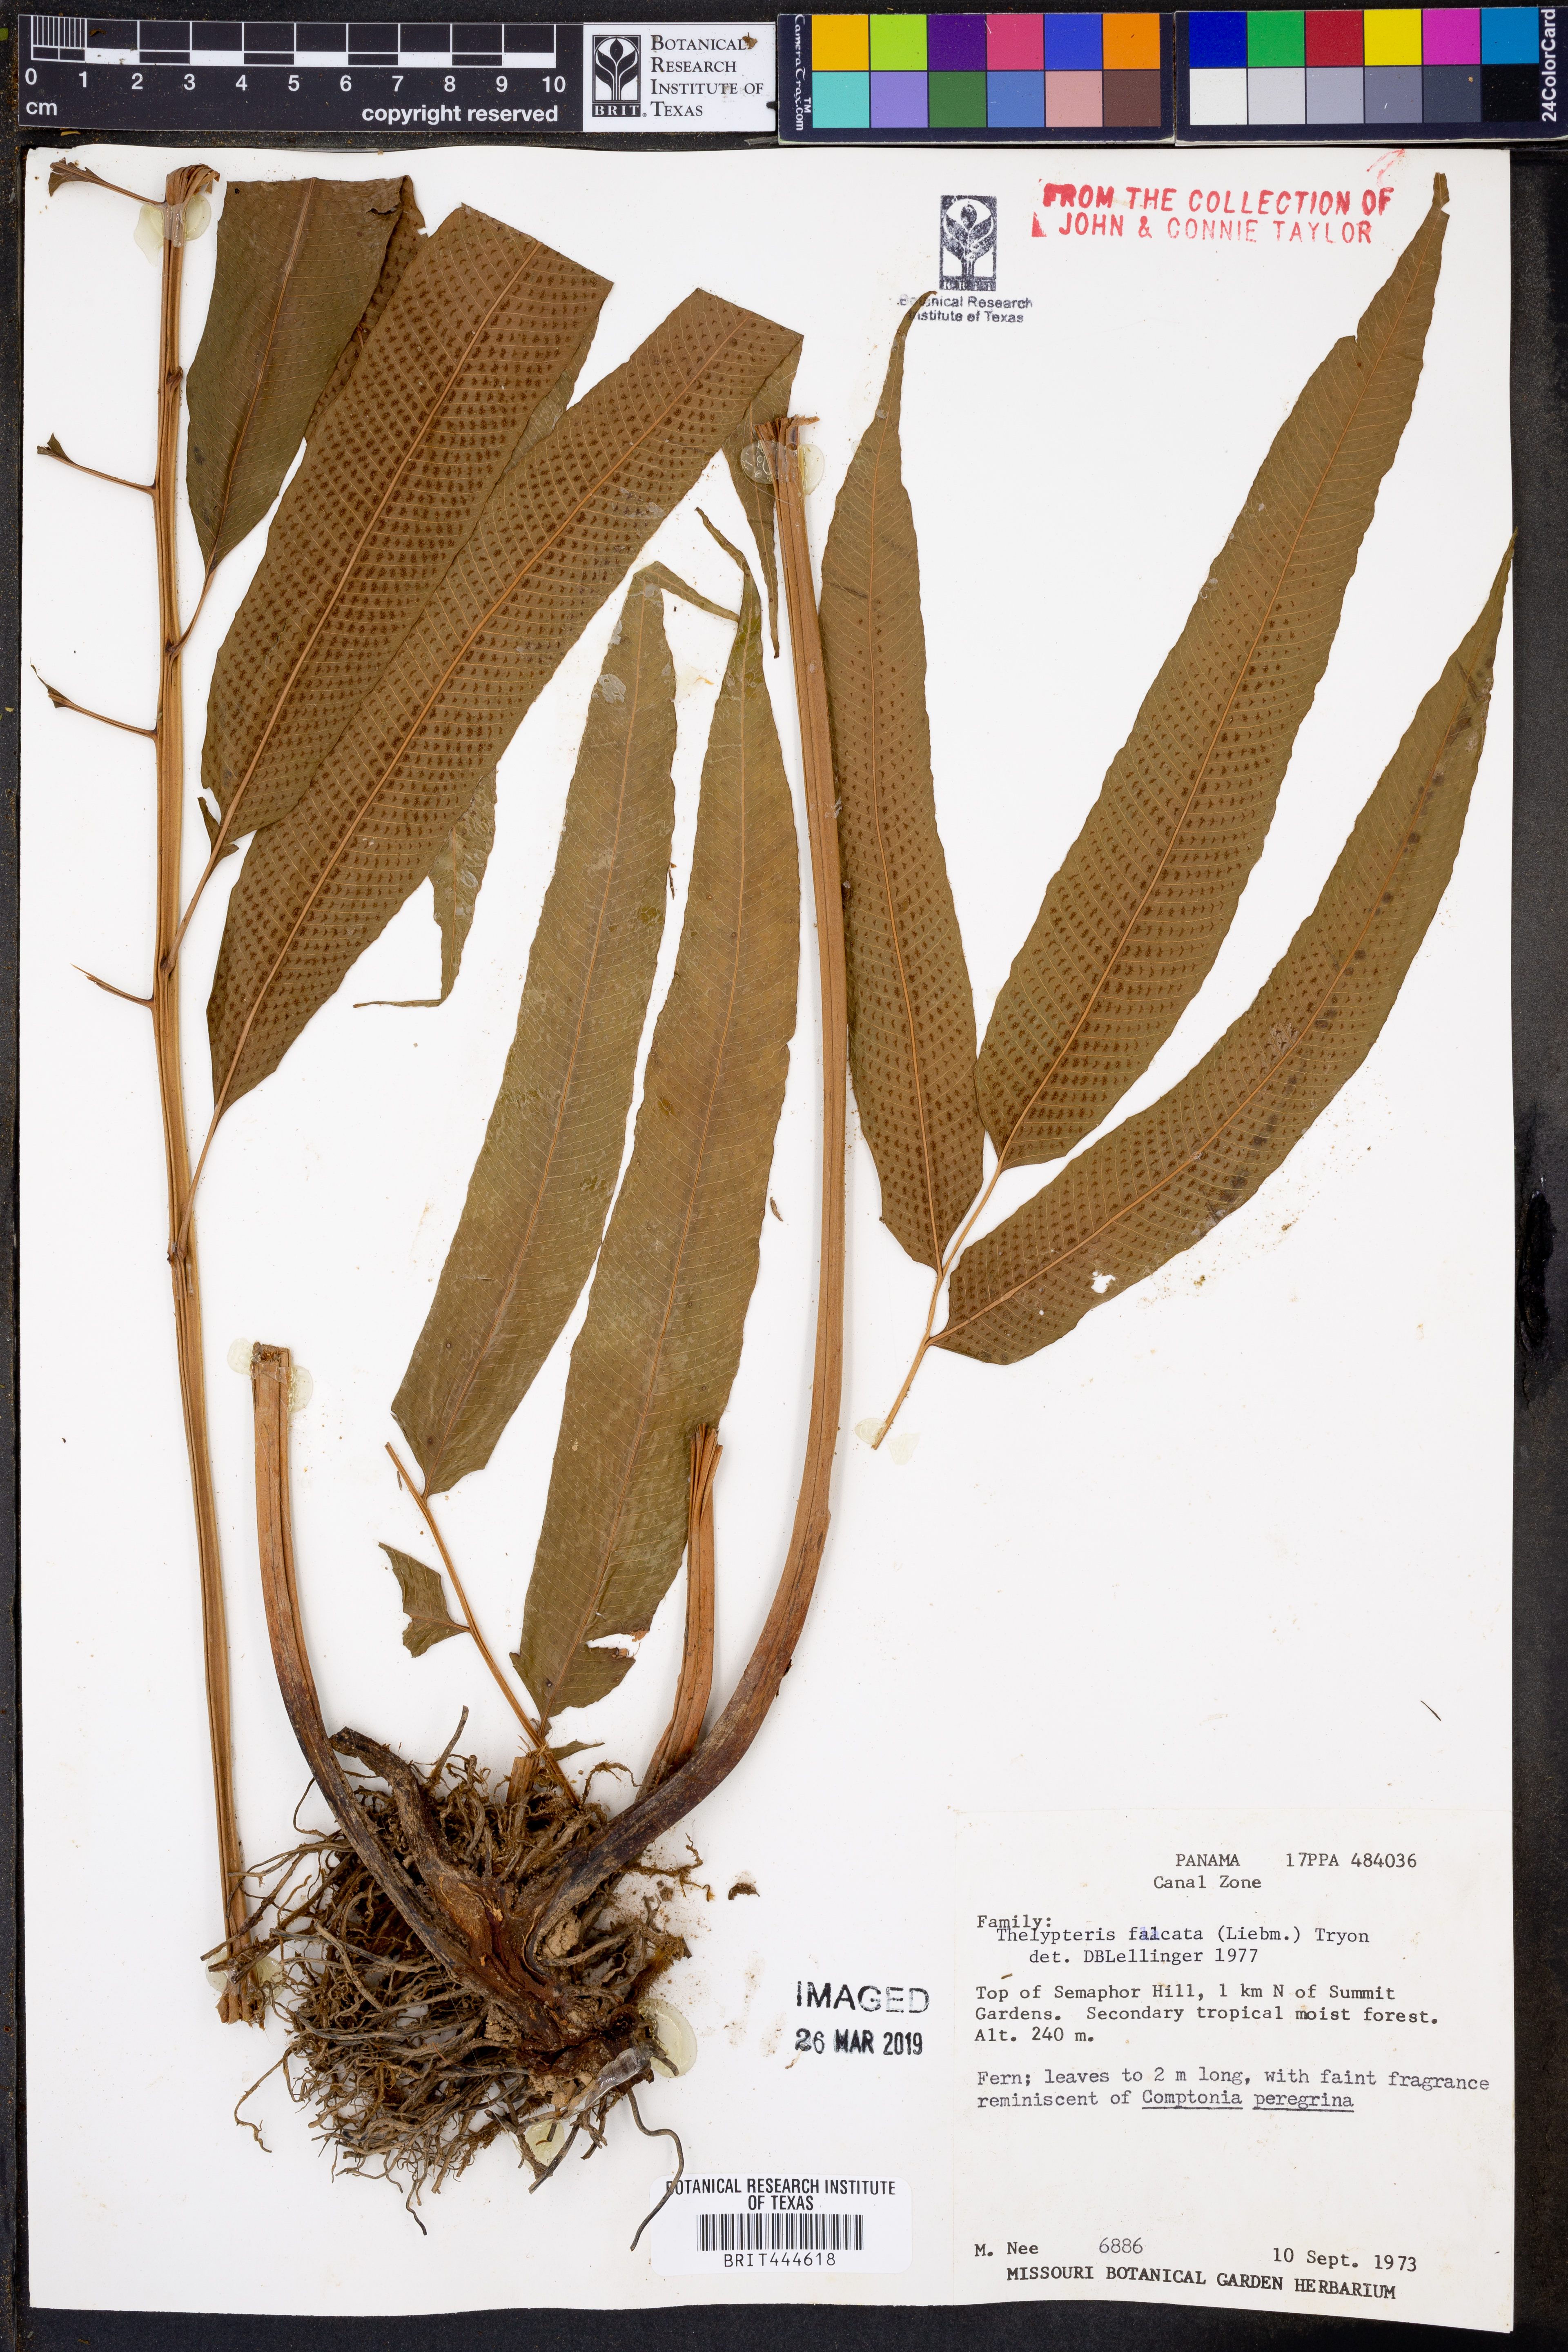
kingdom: Plantae
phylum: Tracheophyta
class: Polypodiopsida
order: Polypodiales
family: Thelypteridaceae
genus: Meniscium
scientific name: Meniscium falcatum
